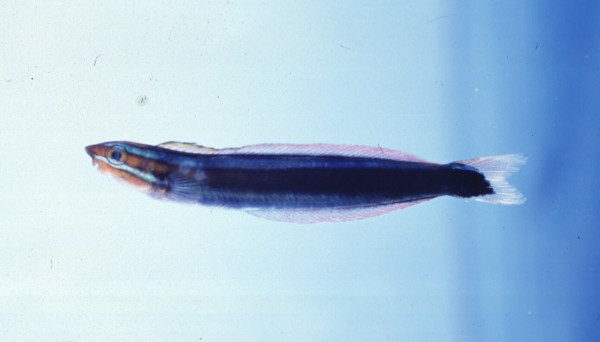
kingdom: Animalia
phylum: Chordata
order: Perciformes
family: Blenniidae
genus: Plagiotremus
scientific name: Plagiotremus rhinorhynchos
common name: Bluestriped fangblenny
